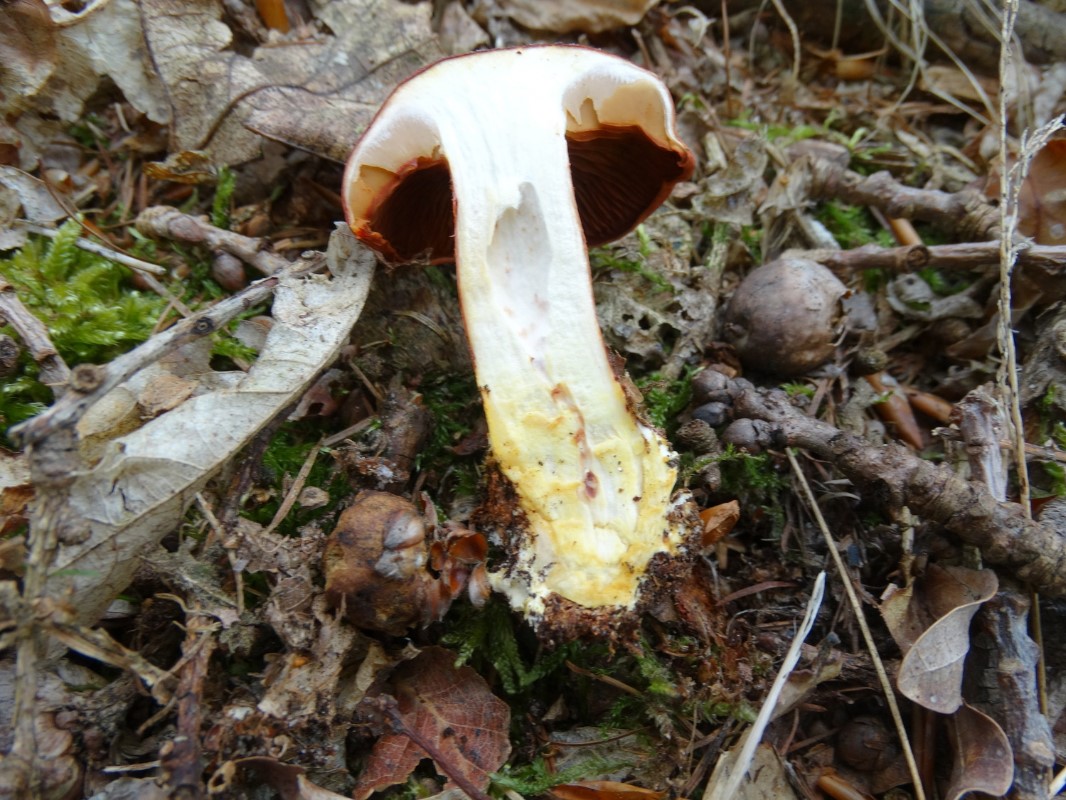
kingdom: Fungi
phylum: Basidiomycota
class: Agaricomycetes
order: Agaricales
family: Cortinariaceae
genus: Cortinarius
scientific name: Cortinarius bolaris
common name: cinnoberskællet slørhat
